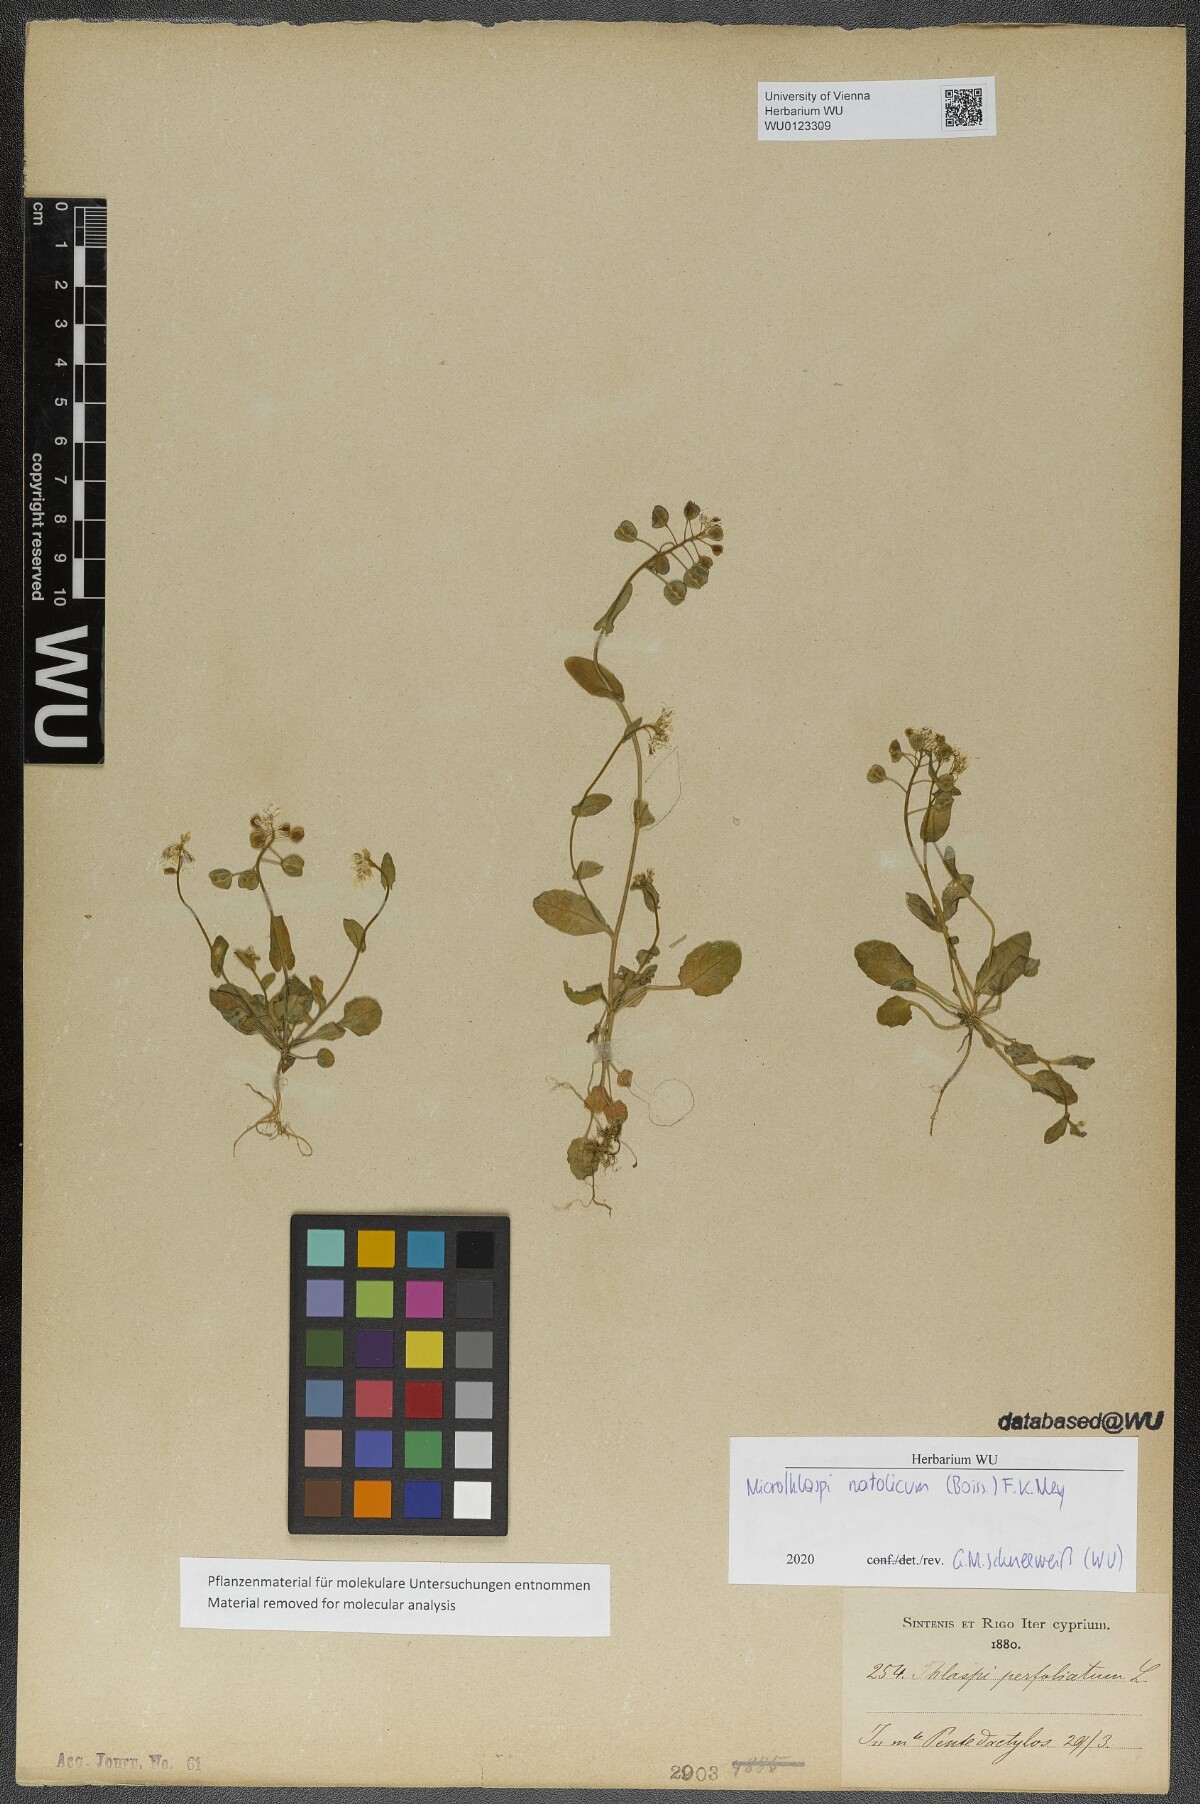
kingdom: Plantae
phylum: Tracheophyta
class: Magnoliopsida
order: Brassicales
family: Brassicaceae
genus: Noccaea
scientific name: Noccaea natolica
